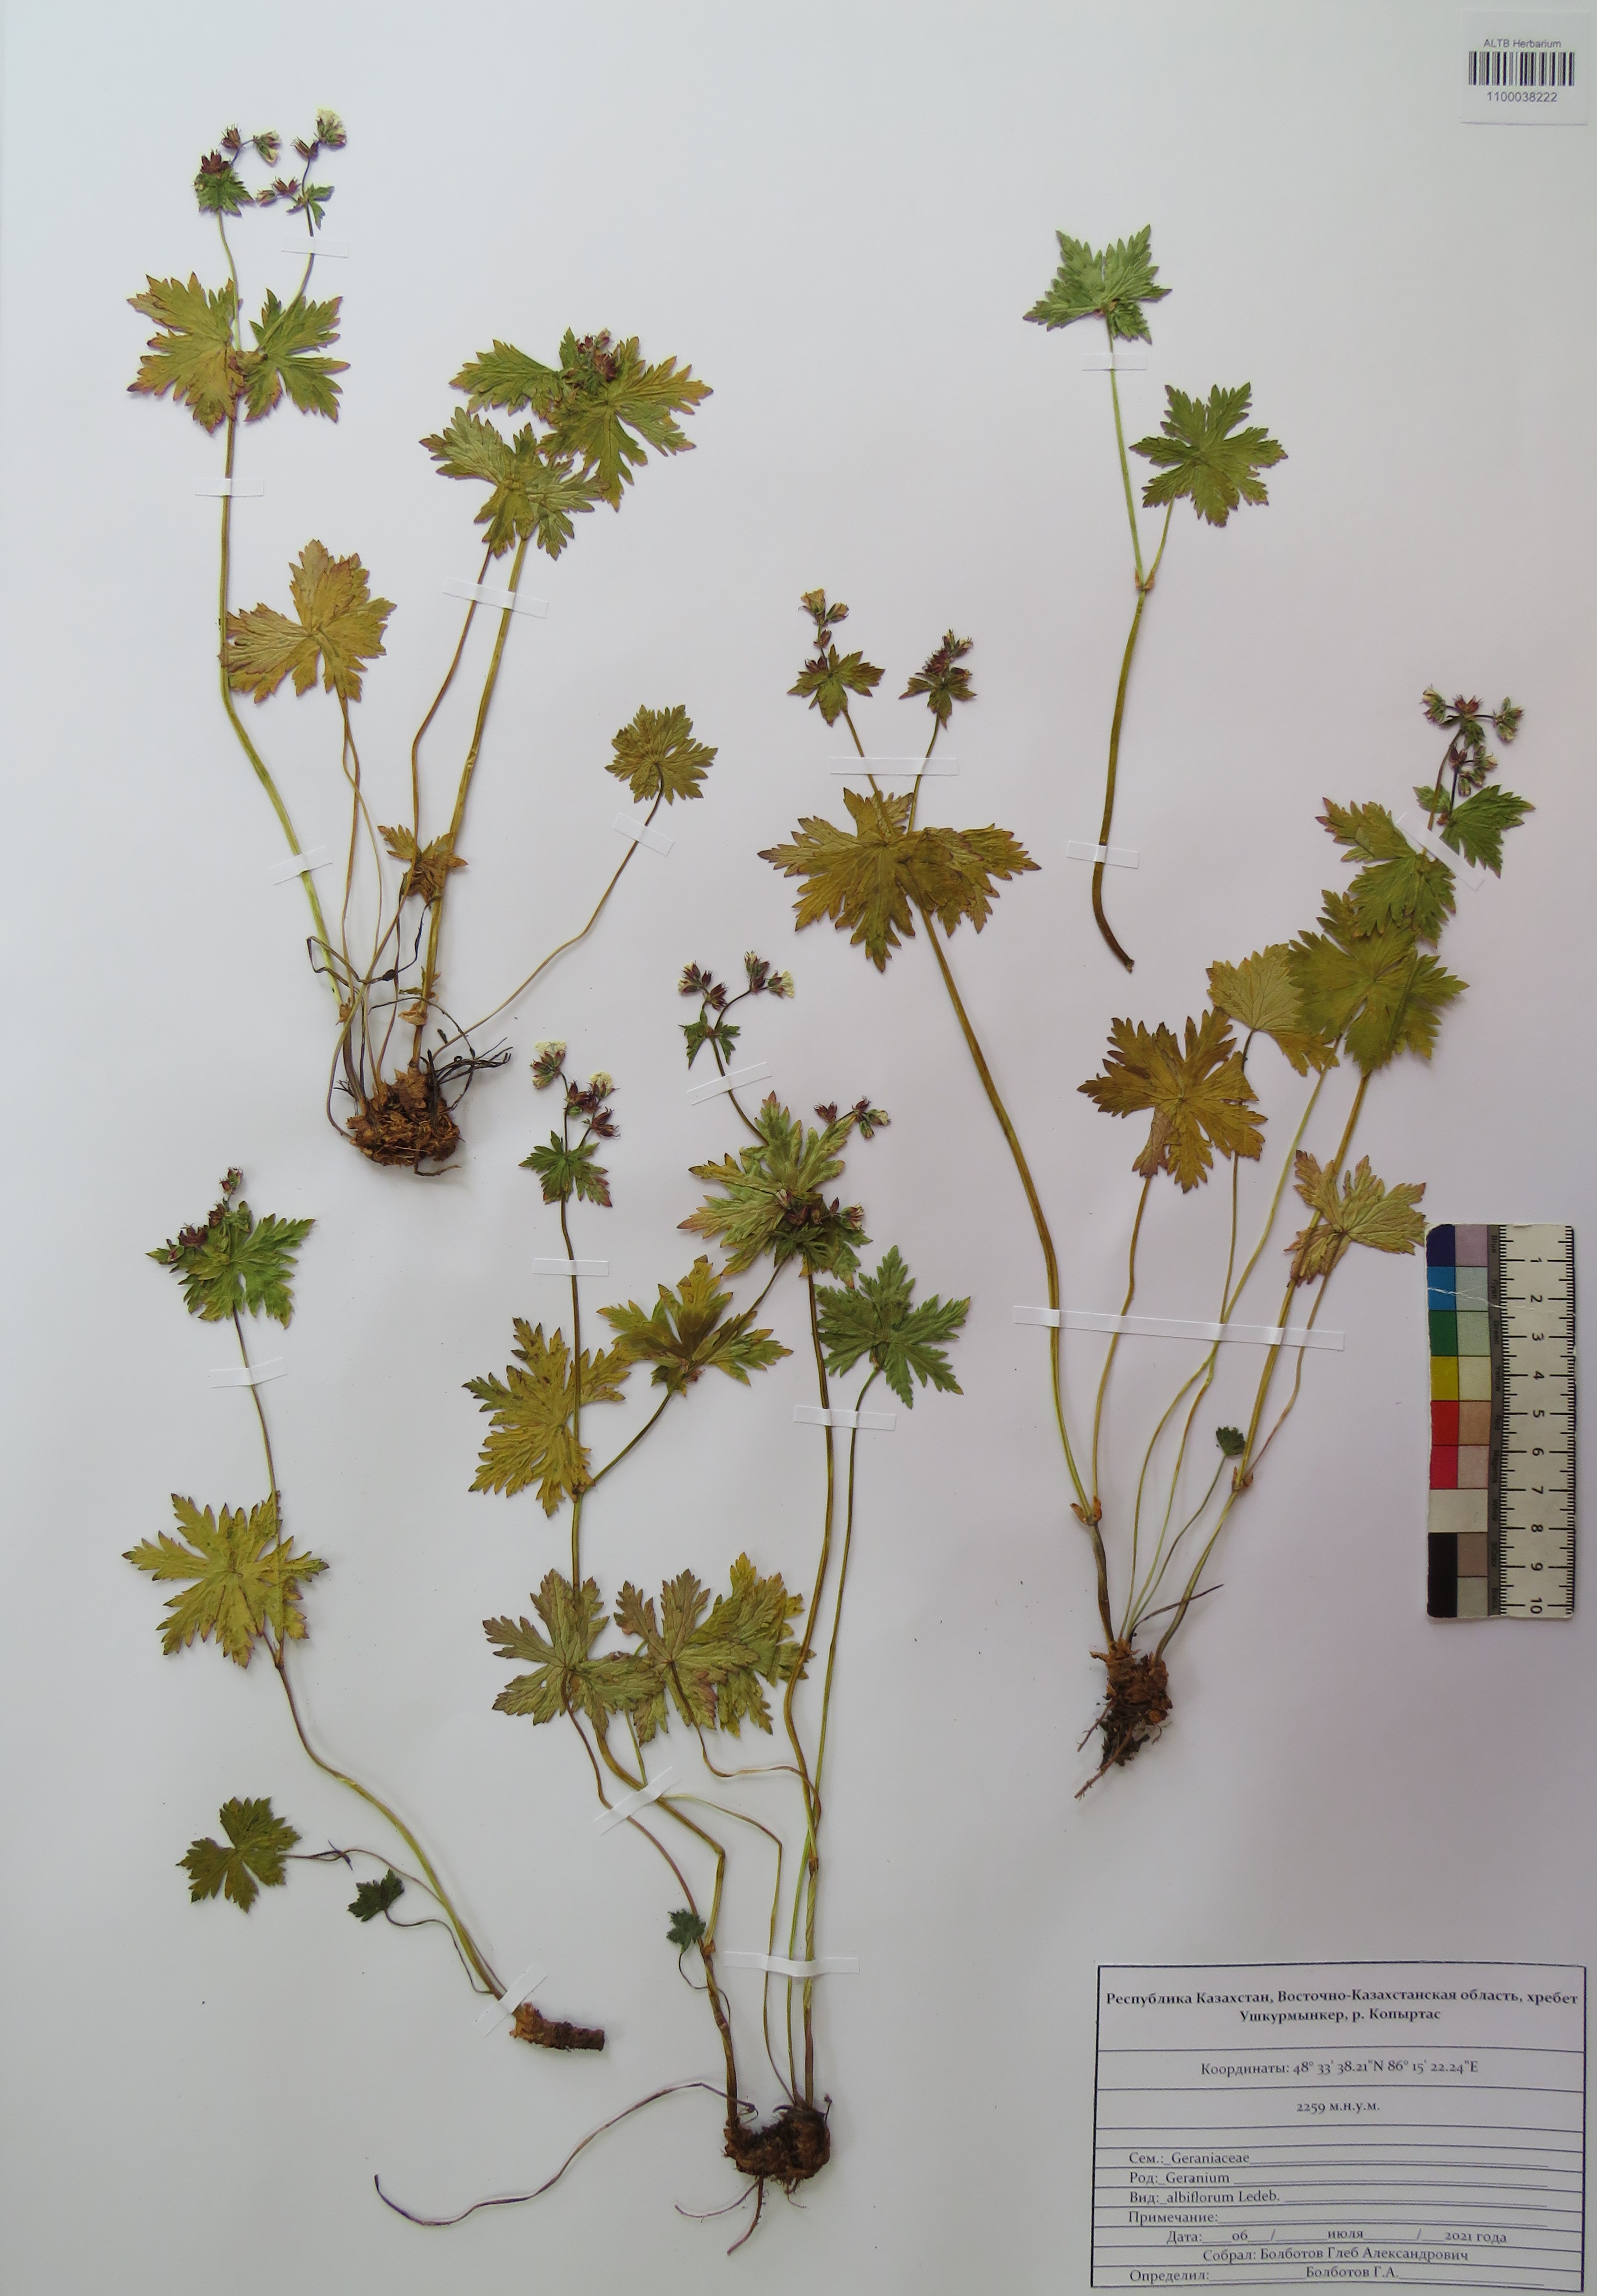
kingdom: Plantae
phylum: Tracheophyta
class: Magnoliopsida
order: Geraniales
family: Geraniaceae
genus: Geranium
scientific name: Geranium albiflorum
